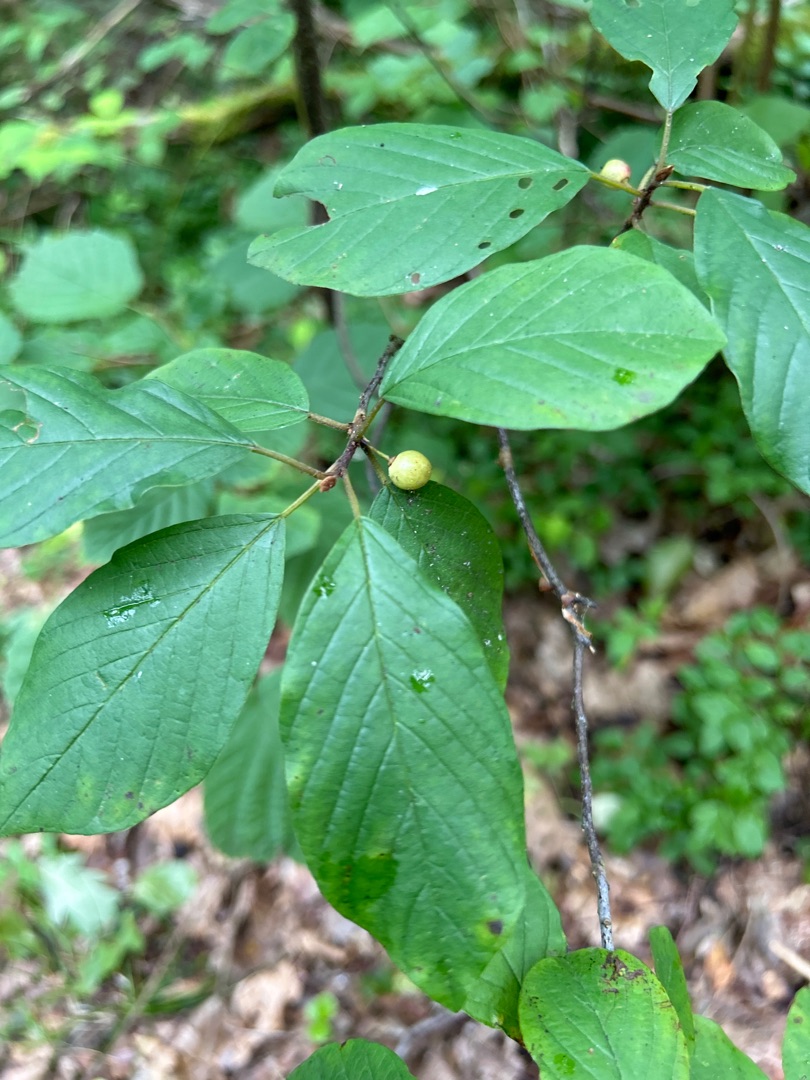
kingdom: Plantae
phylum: Tracheophyta
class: Magnoliopsida
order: Rosales
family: Rhamnaceae
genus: Frangula
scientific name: Frangula alnus
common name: Tørst
